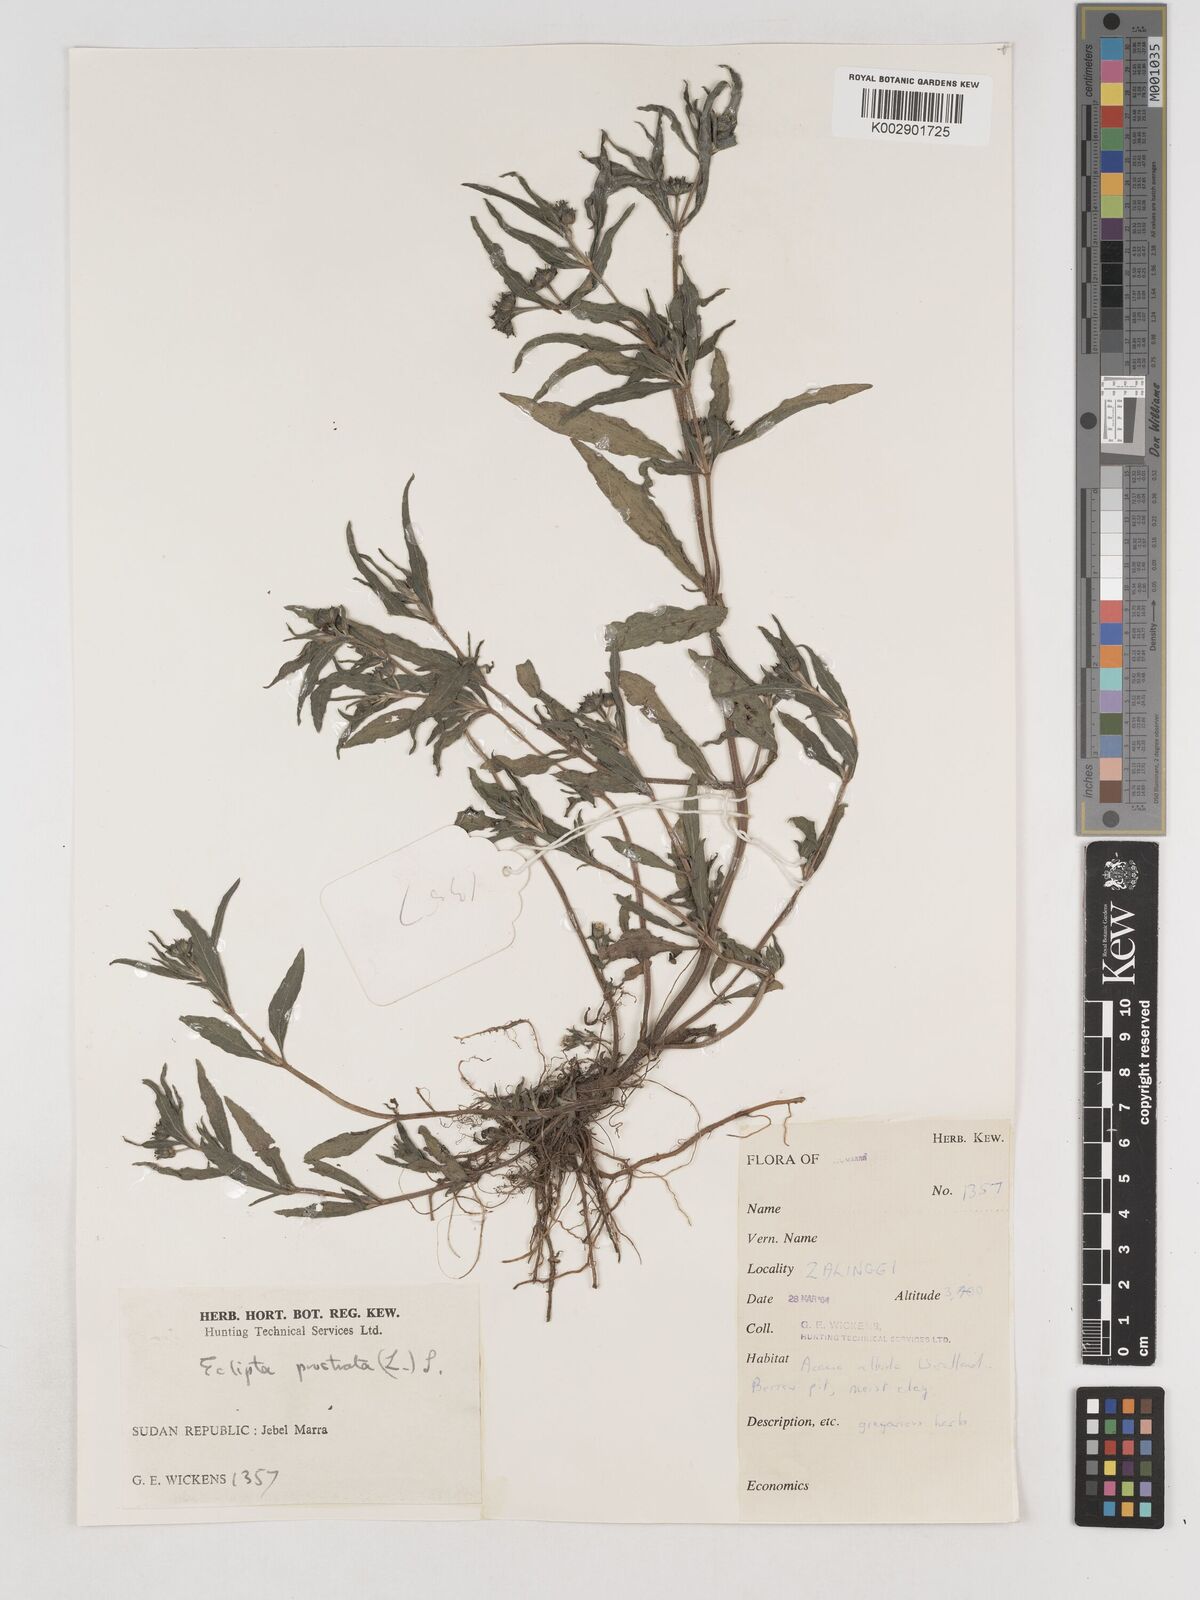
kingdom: Plantae
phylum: Tracheophyta
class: Magnoliopsida
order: Asterales
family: Asteraceae
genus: Eclipta
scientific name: Eclipta prostrata
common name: False daisy
